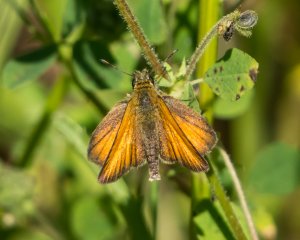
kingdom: Animalia
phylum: Arthropoda
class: Insecta
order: Lepidoptera
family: Hesperiidae
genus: Thymelicus
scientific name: Thymelicus lineola
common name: European Skipper
